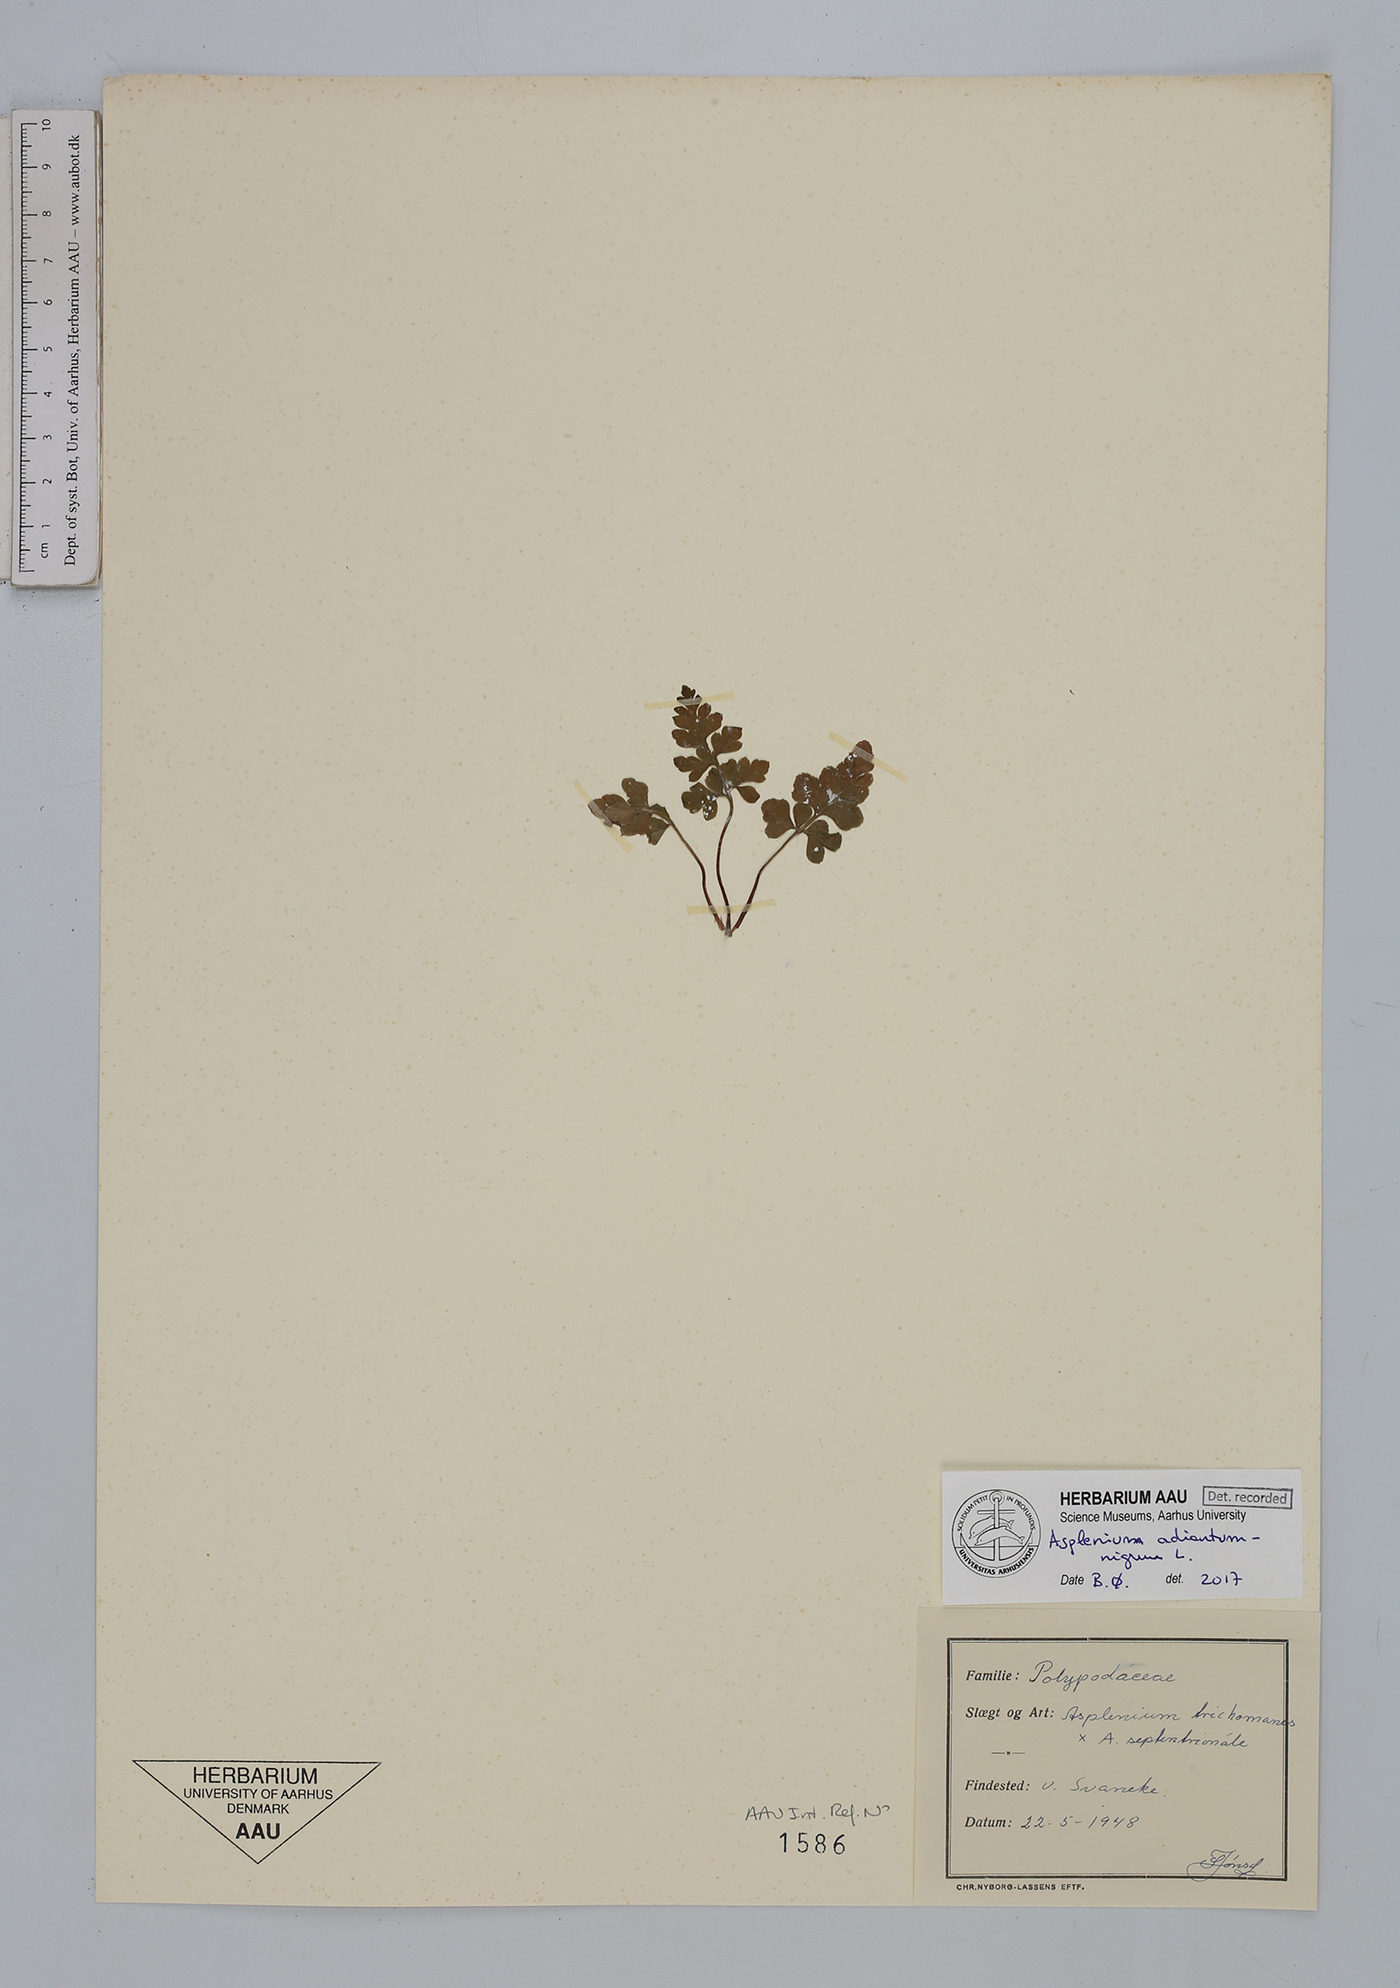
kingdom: Plantae
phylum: Tracheophyta
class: Polypodiopsida
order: Polypodiales
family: Aspleniaceae
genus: Asplenium
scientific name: Asplenium adiantum-nigrum
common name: Black spleenwort
